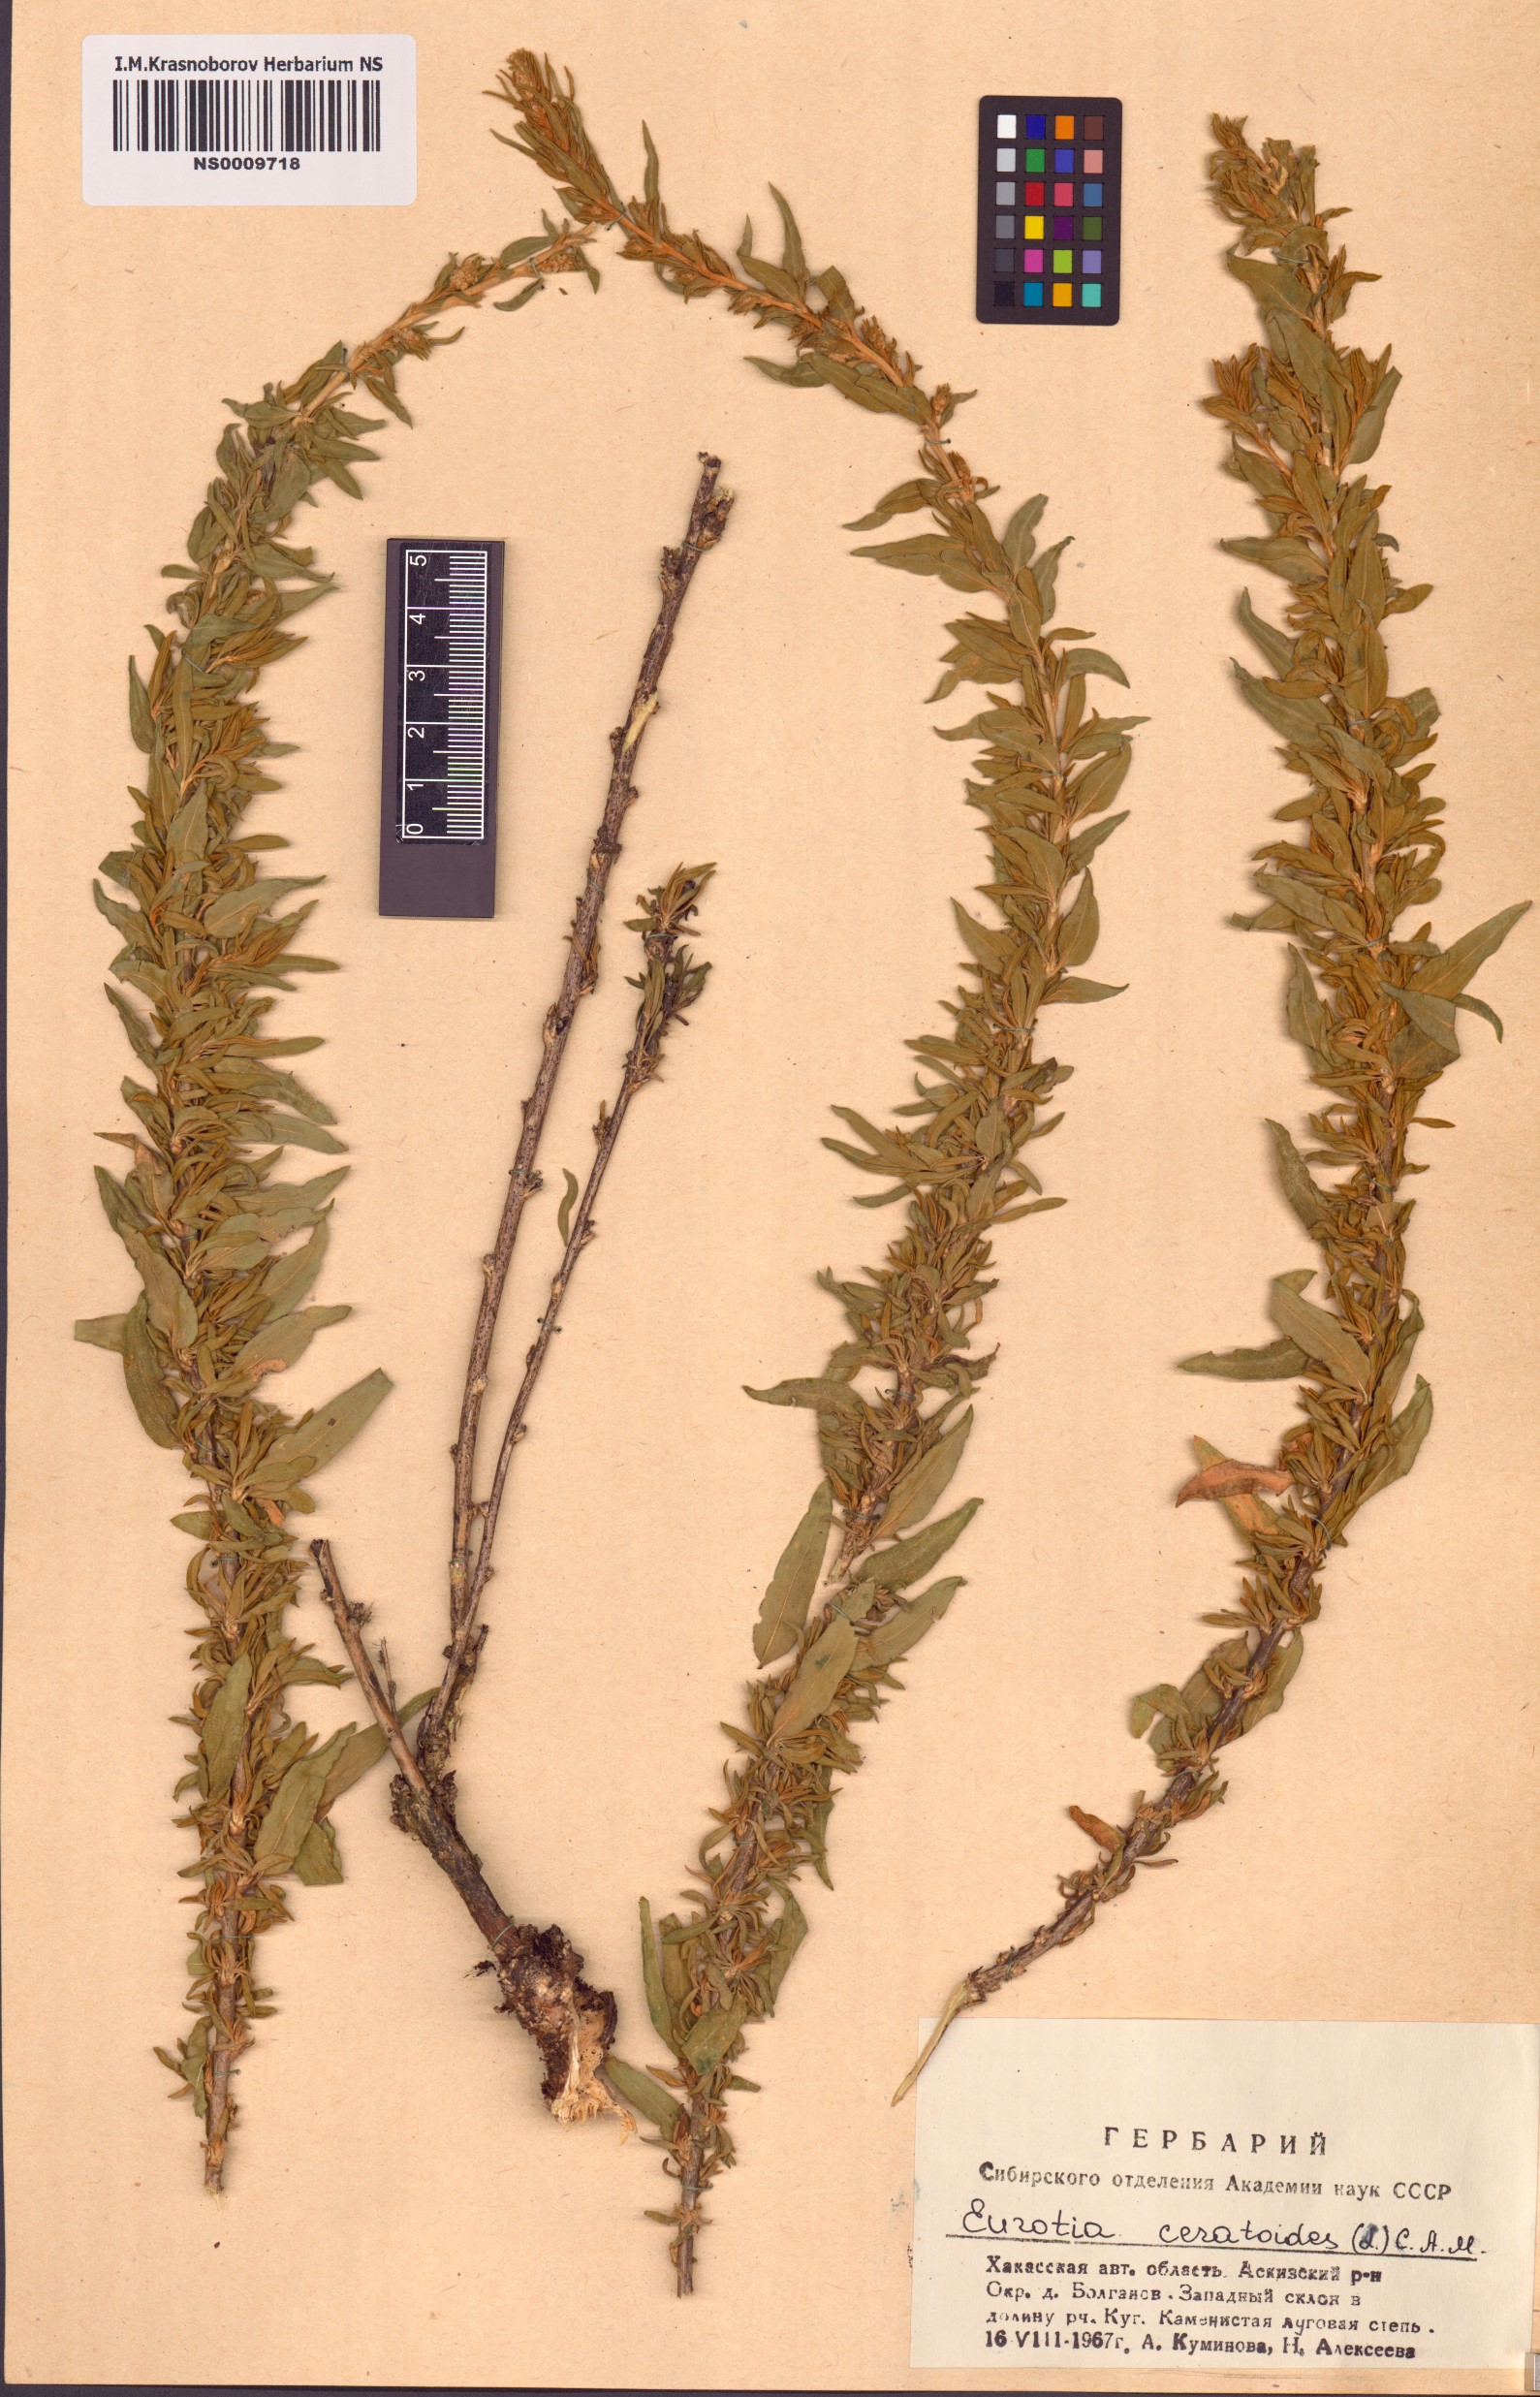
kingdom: Plantae
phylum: Tracheophyta
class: Magnoliopsida
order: Caryophyllales
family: Amaranthaceae
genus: Krascheninnikovia
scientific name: Krascheninnikovia ceratoides
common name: Pamirian winterfat
